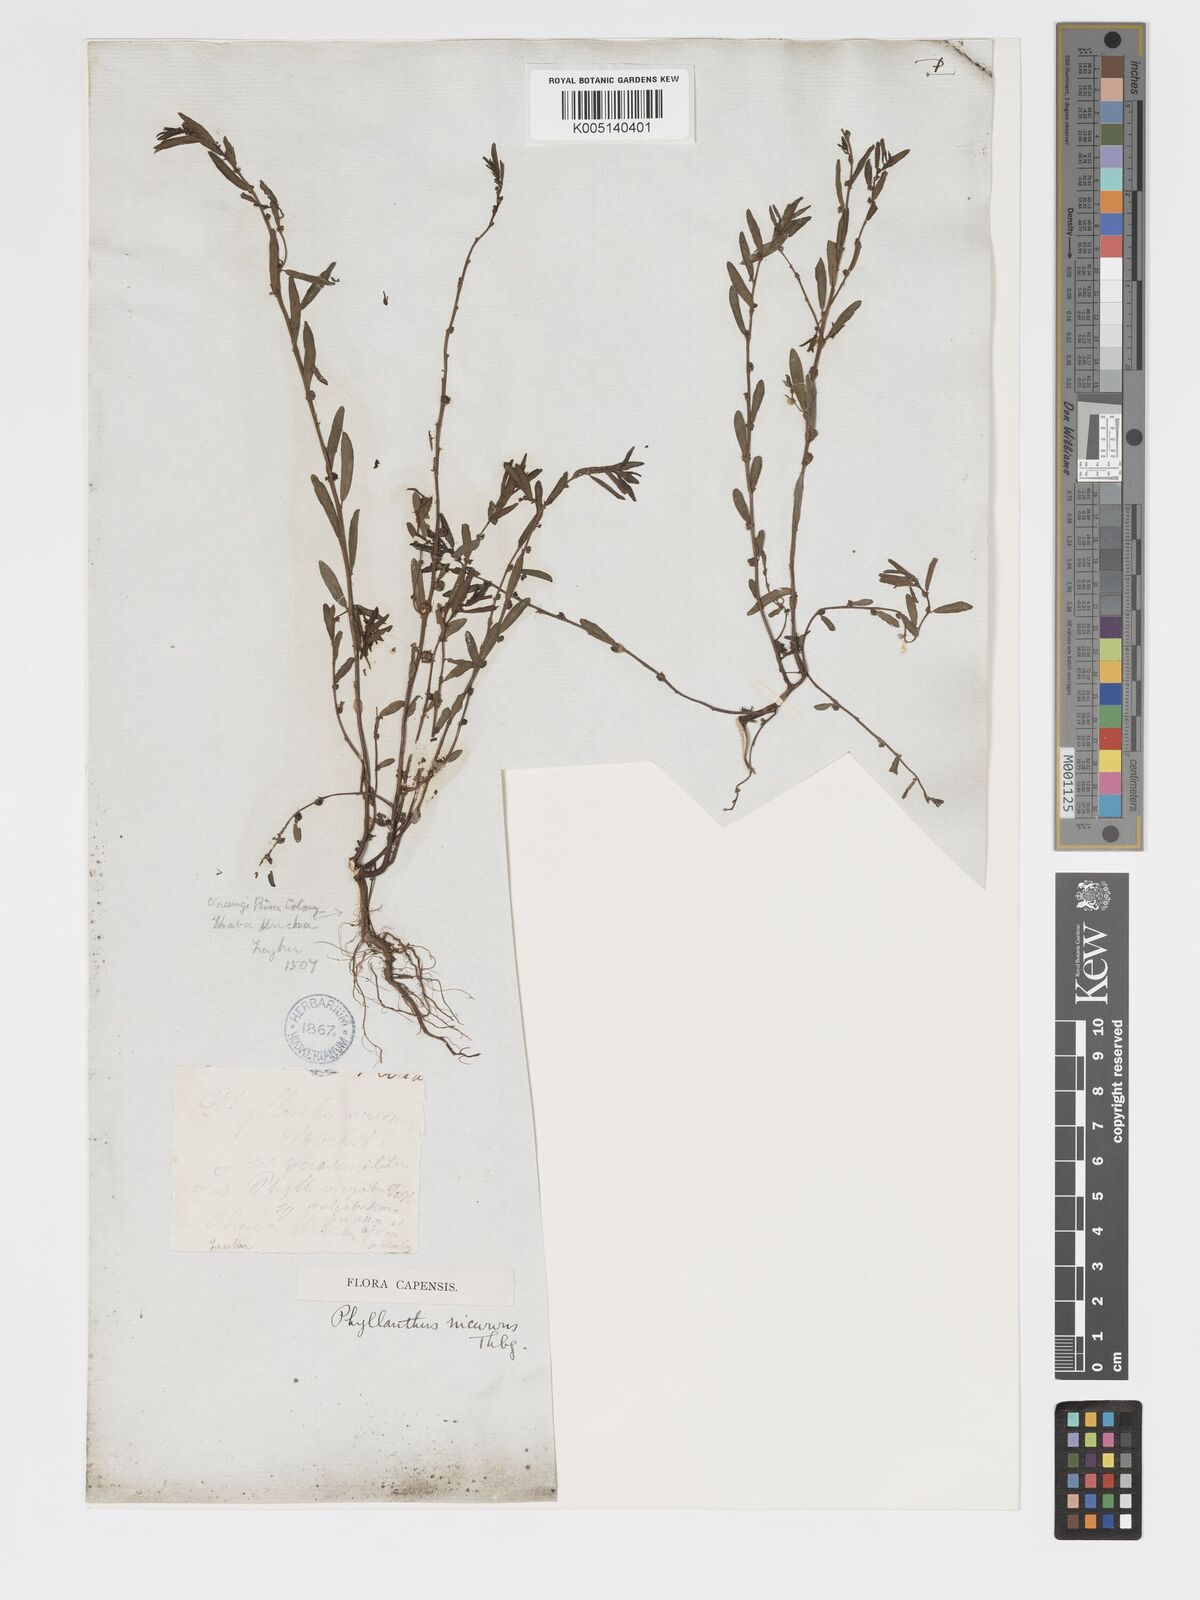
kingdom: Plantae
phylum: Tracheophyta
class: Magnoliopsida
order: Malpighiales
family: Phyllanthaceae
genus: Phyllanthus
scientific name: Phyllanthus incurvus
